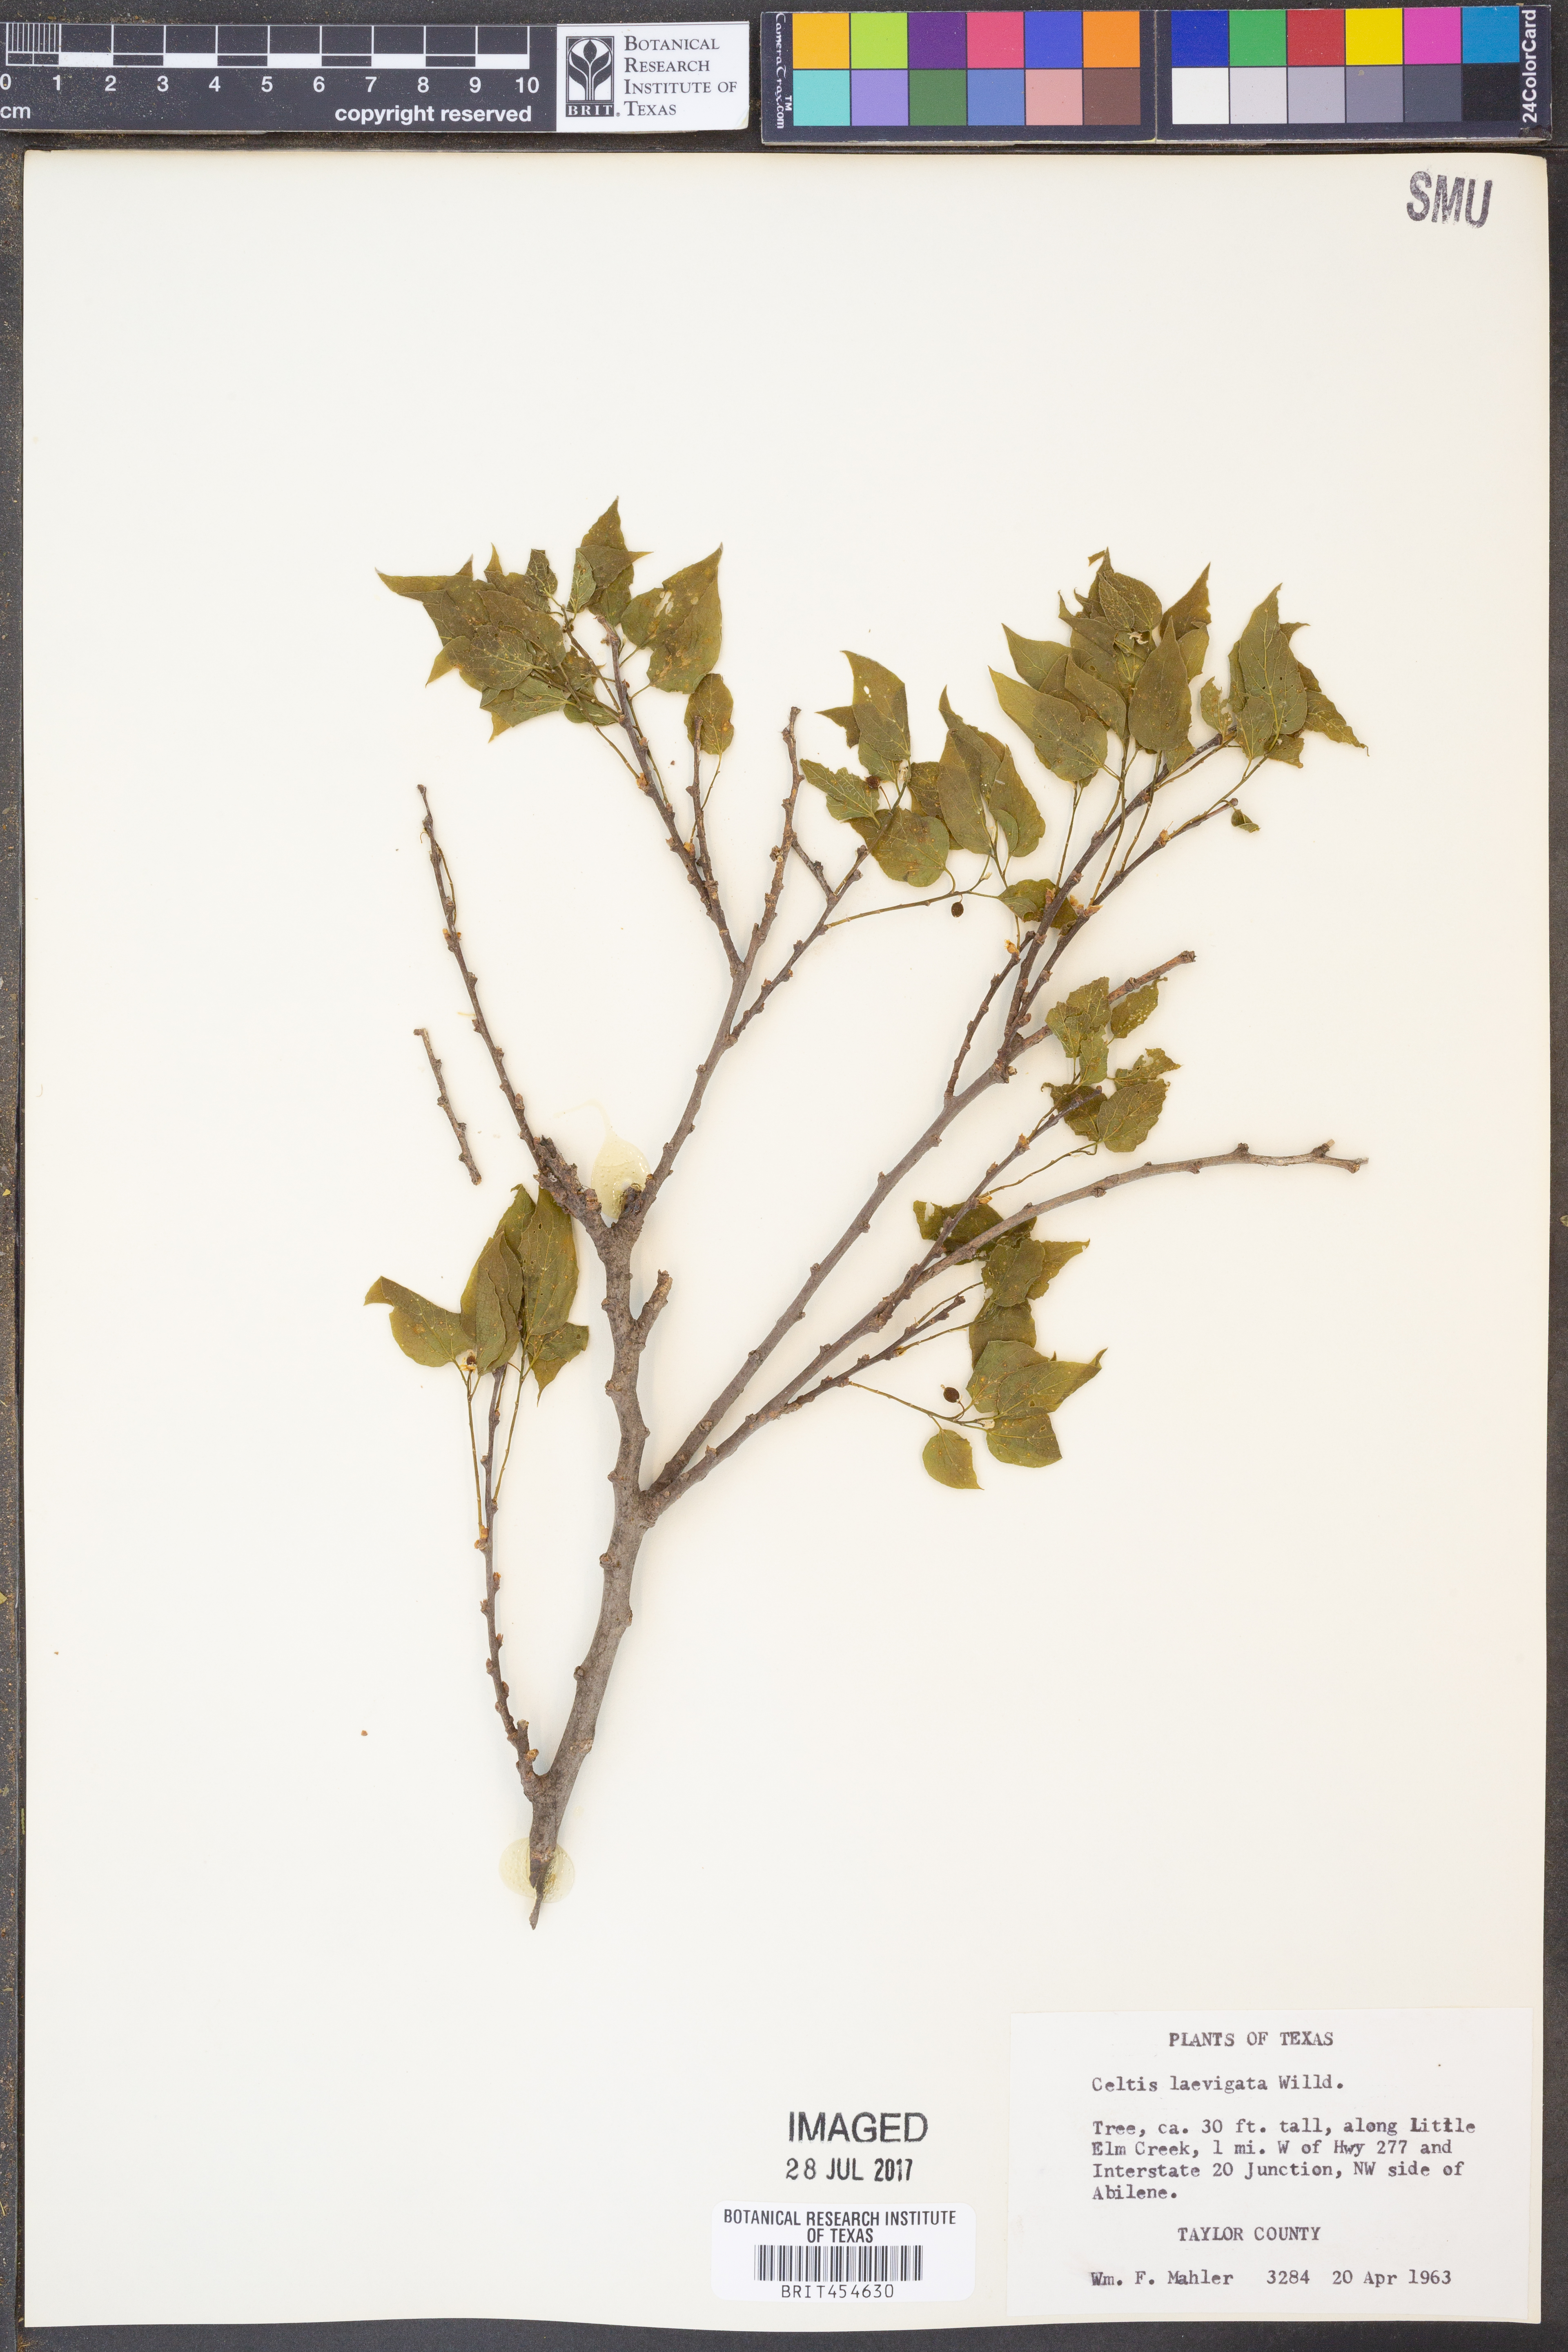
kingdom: Plantae
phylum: Tracheophyta
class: Magnoliopsida
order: Rosales
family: Cannabaceae
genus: Celtis
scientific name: Celtis laevigata
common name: Sugarberry
